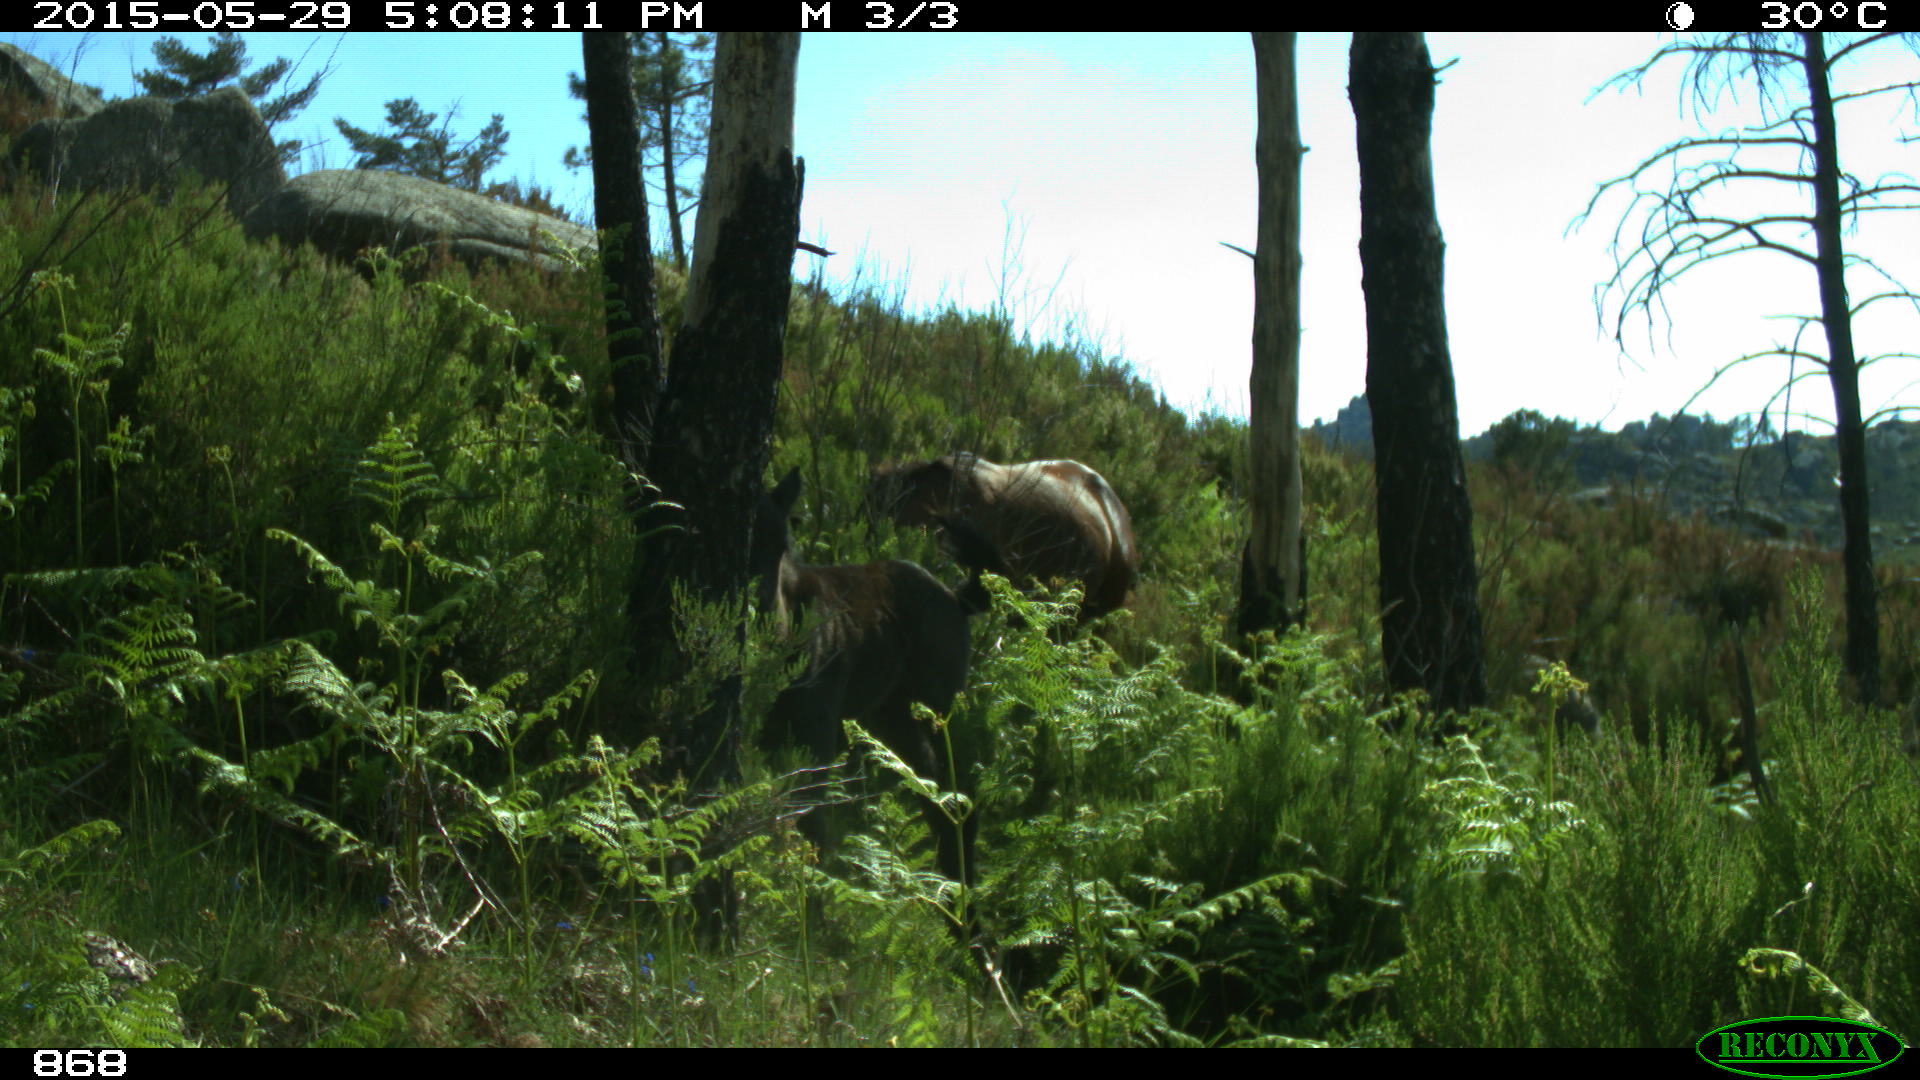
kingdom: Animalia
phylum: Chordata
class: Mammalia
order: Perissodactyla
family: Equidae
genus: Equus
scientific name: Equus caballus
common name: Horse
